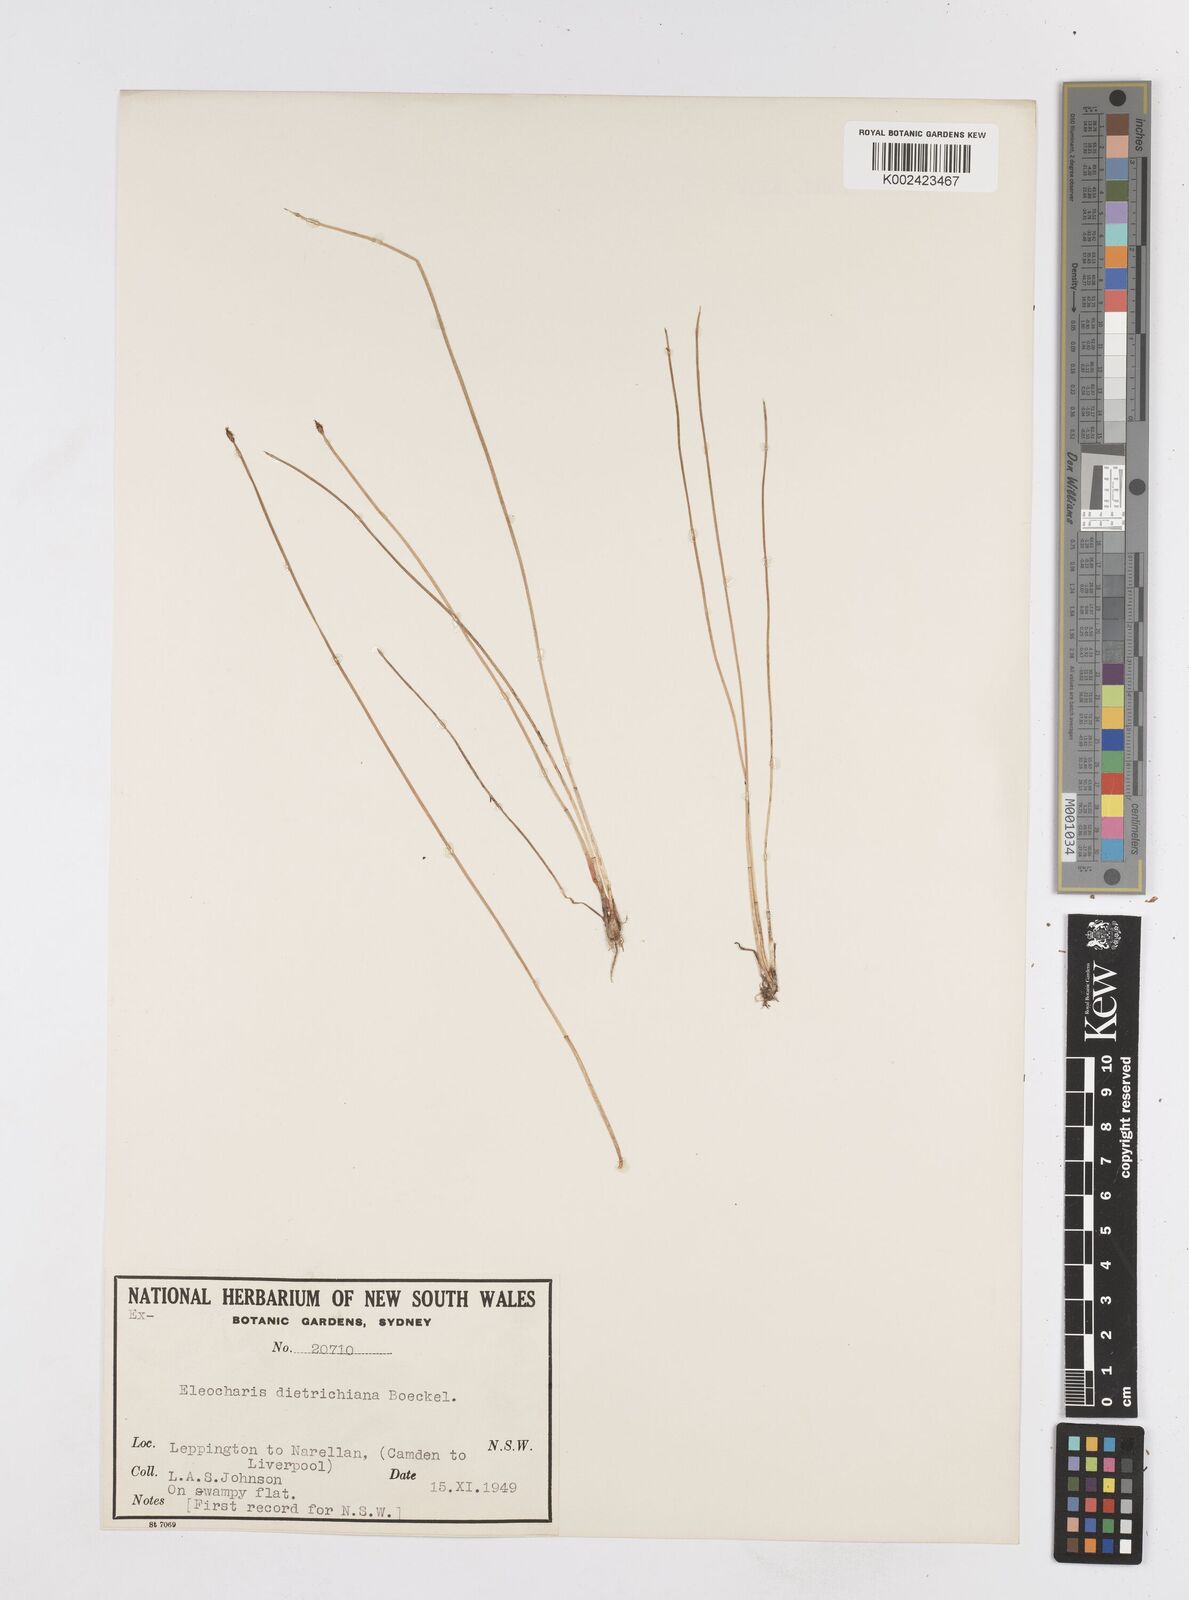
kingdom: Plantae
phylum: Tracheophyta
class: Liliopsida
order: Poales
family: Cyperaceae
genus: Eleocharis
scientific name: Eleocharis dietrichiana
